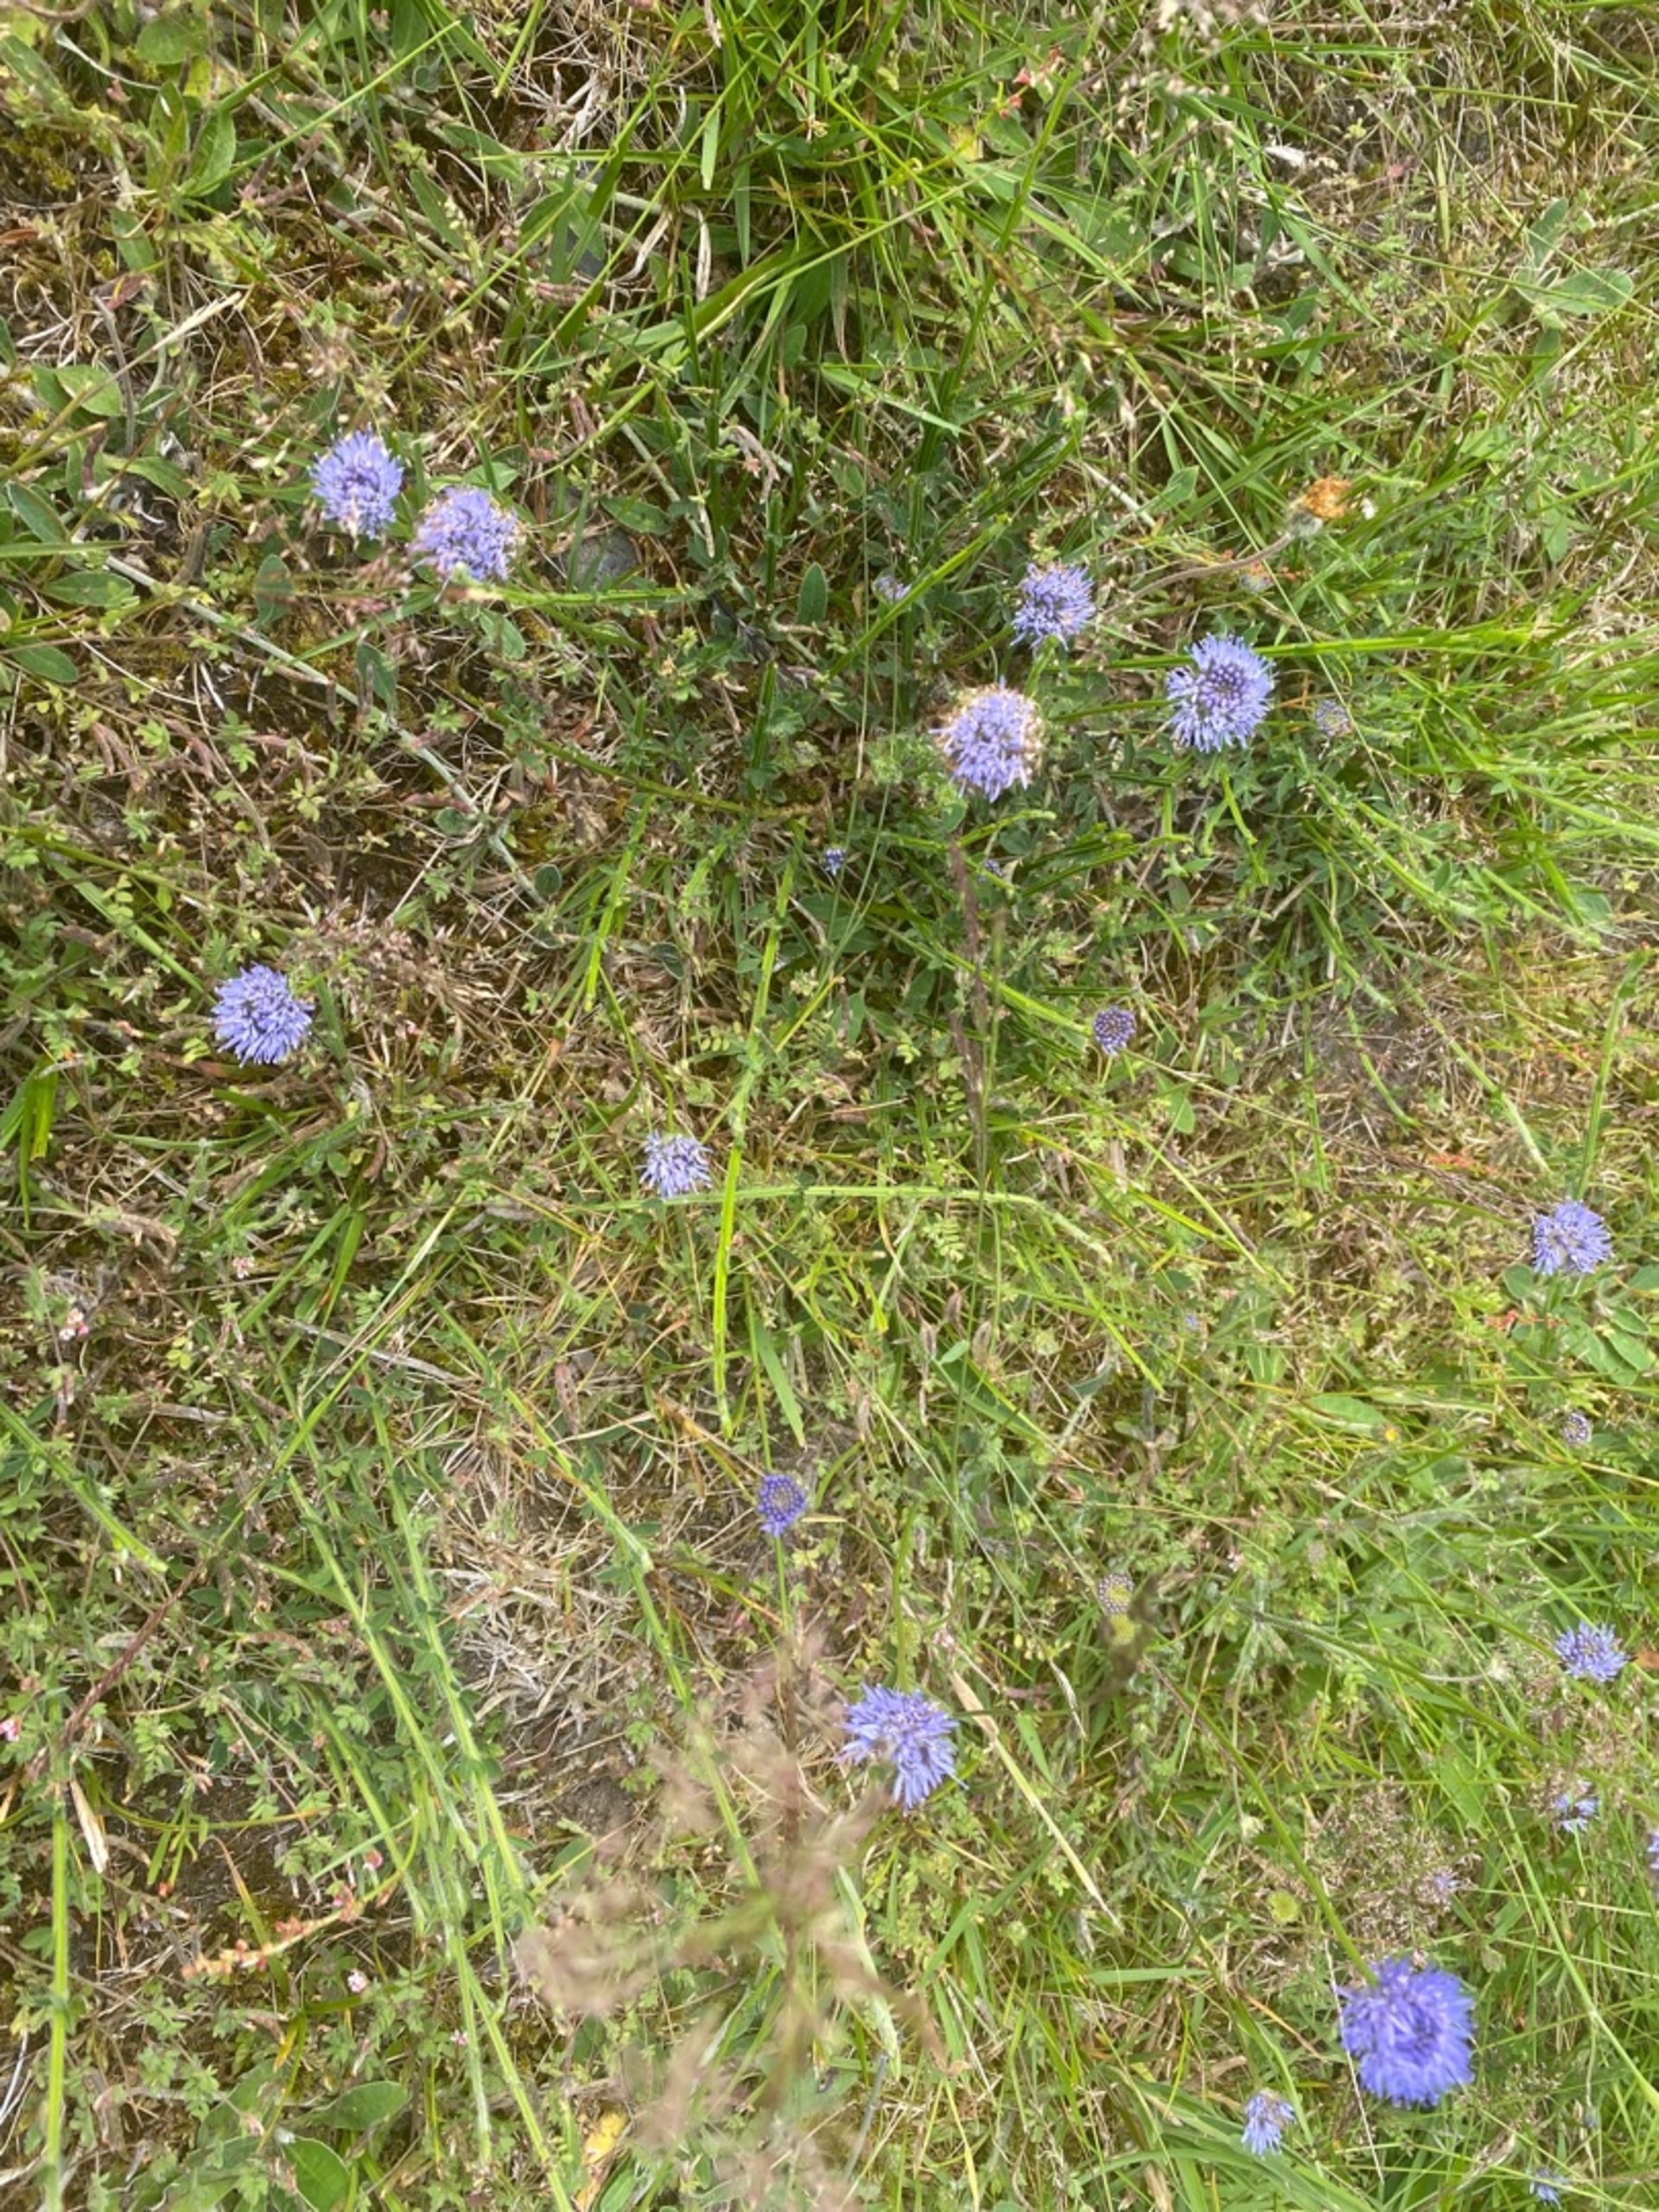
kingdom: Plantae
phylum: Tracheophyta
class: Magnoliopsida
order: Asterales
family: Campanulaceae
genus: Jasione
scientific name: Jasione montana
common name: Blåmunke
